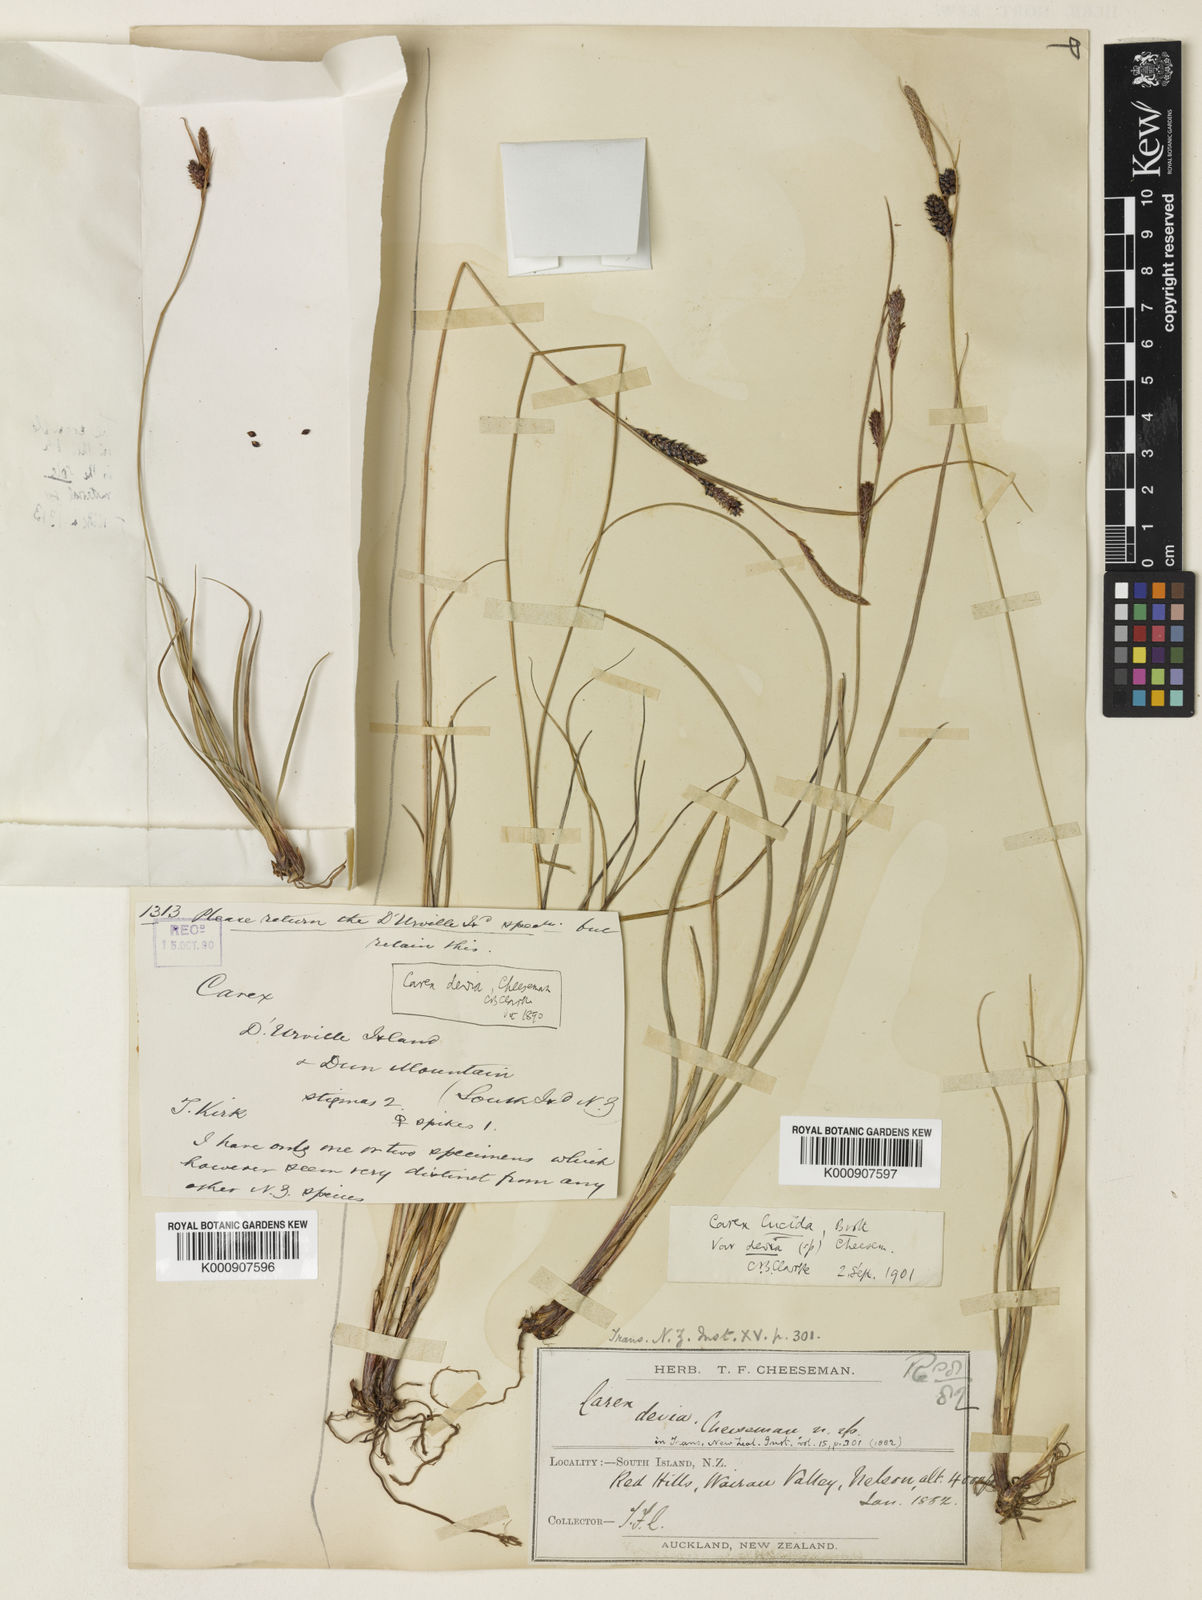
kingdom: Plantae
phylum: Tracheophyta
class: Liliopsida
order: Poales
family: Cyperaceae
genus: Carex
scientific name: Carex devia
